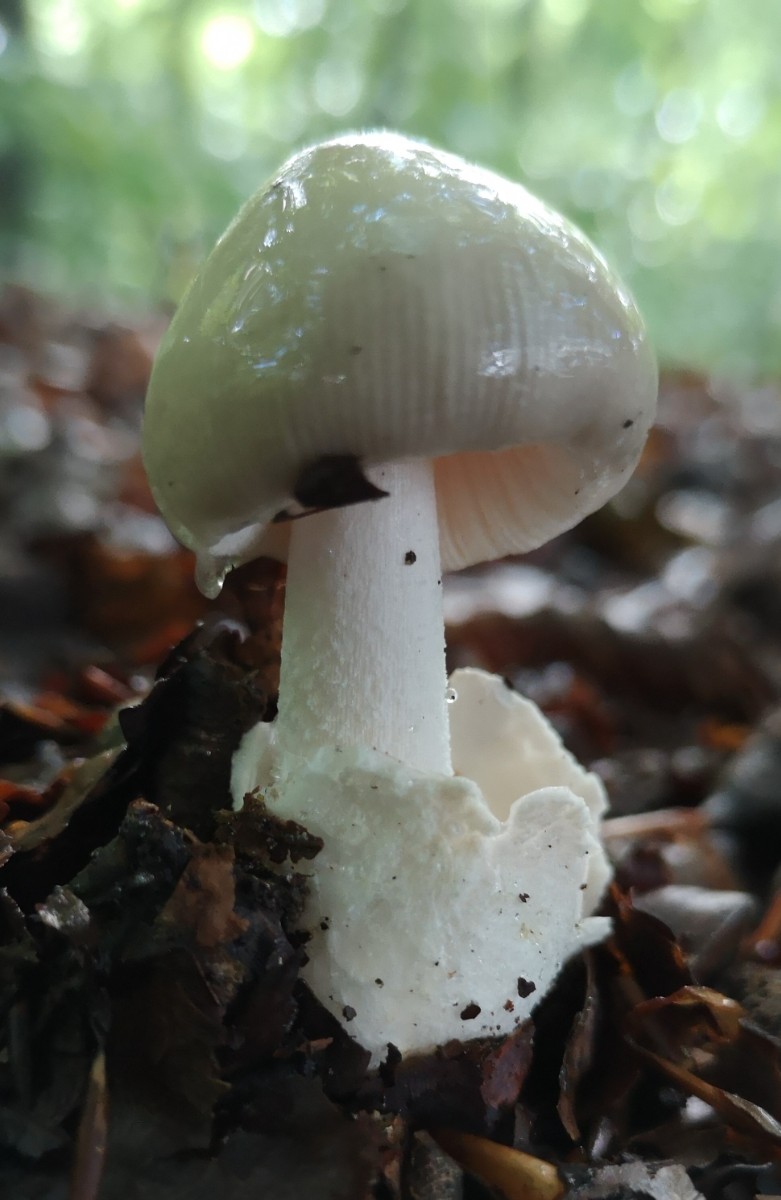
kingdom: Fungi
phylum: Basidiomycota
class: Agaricomycetes
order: Agaricales
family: Amanitaceae
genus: Amanita
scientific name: Amanita
